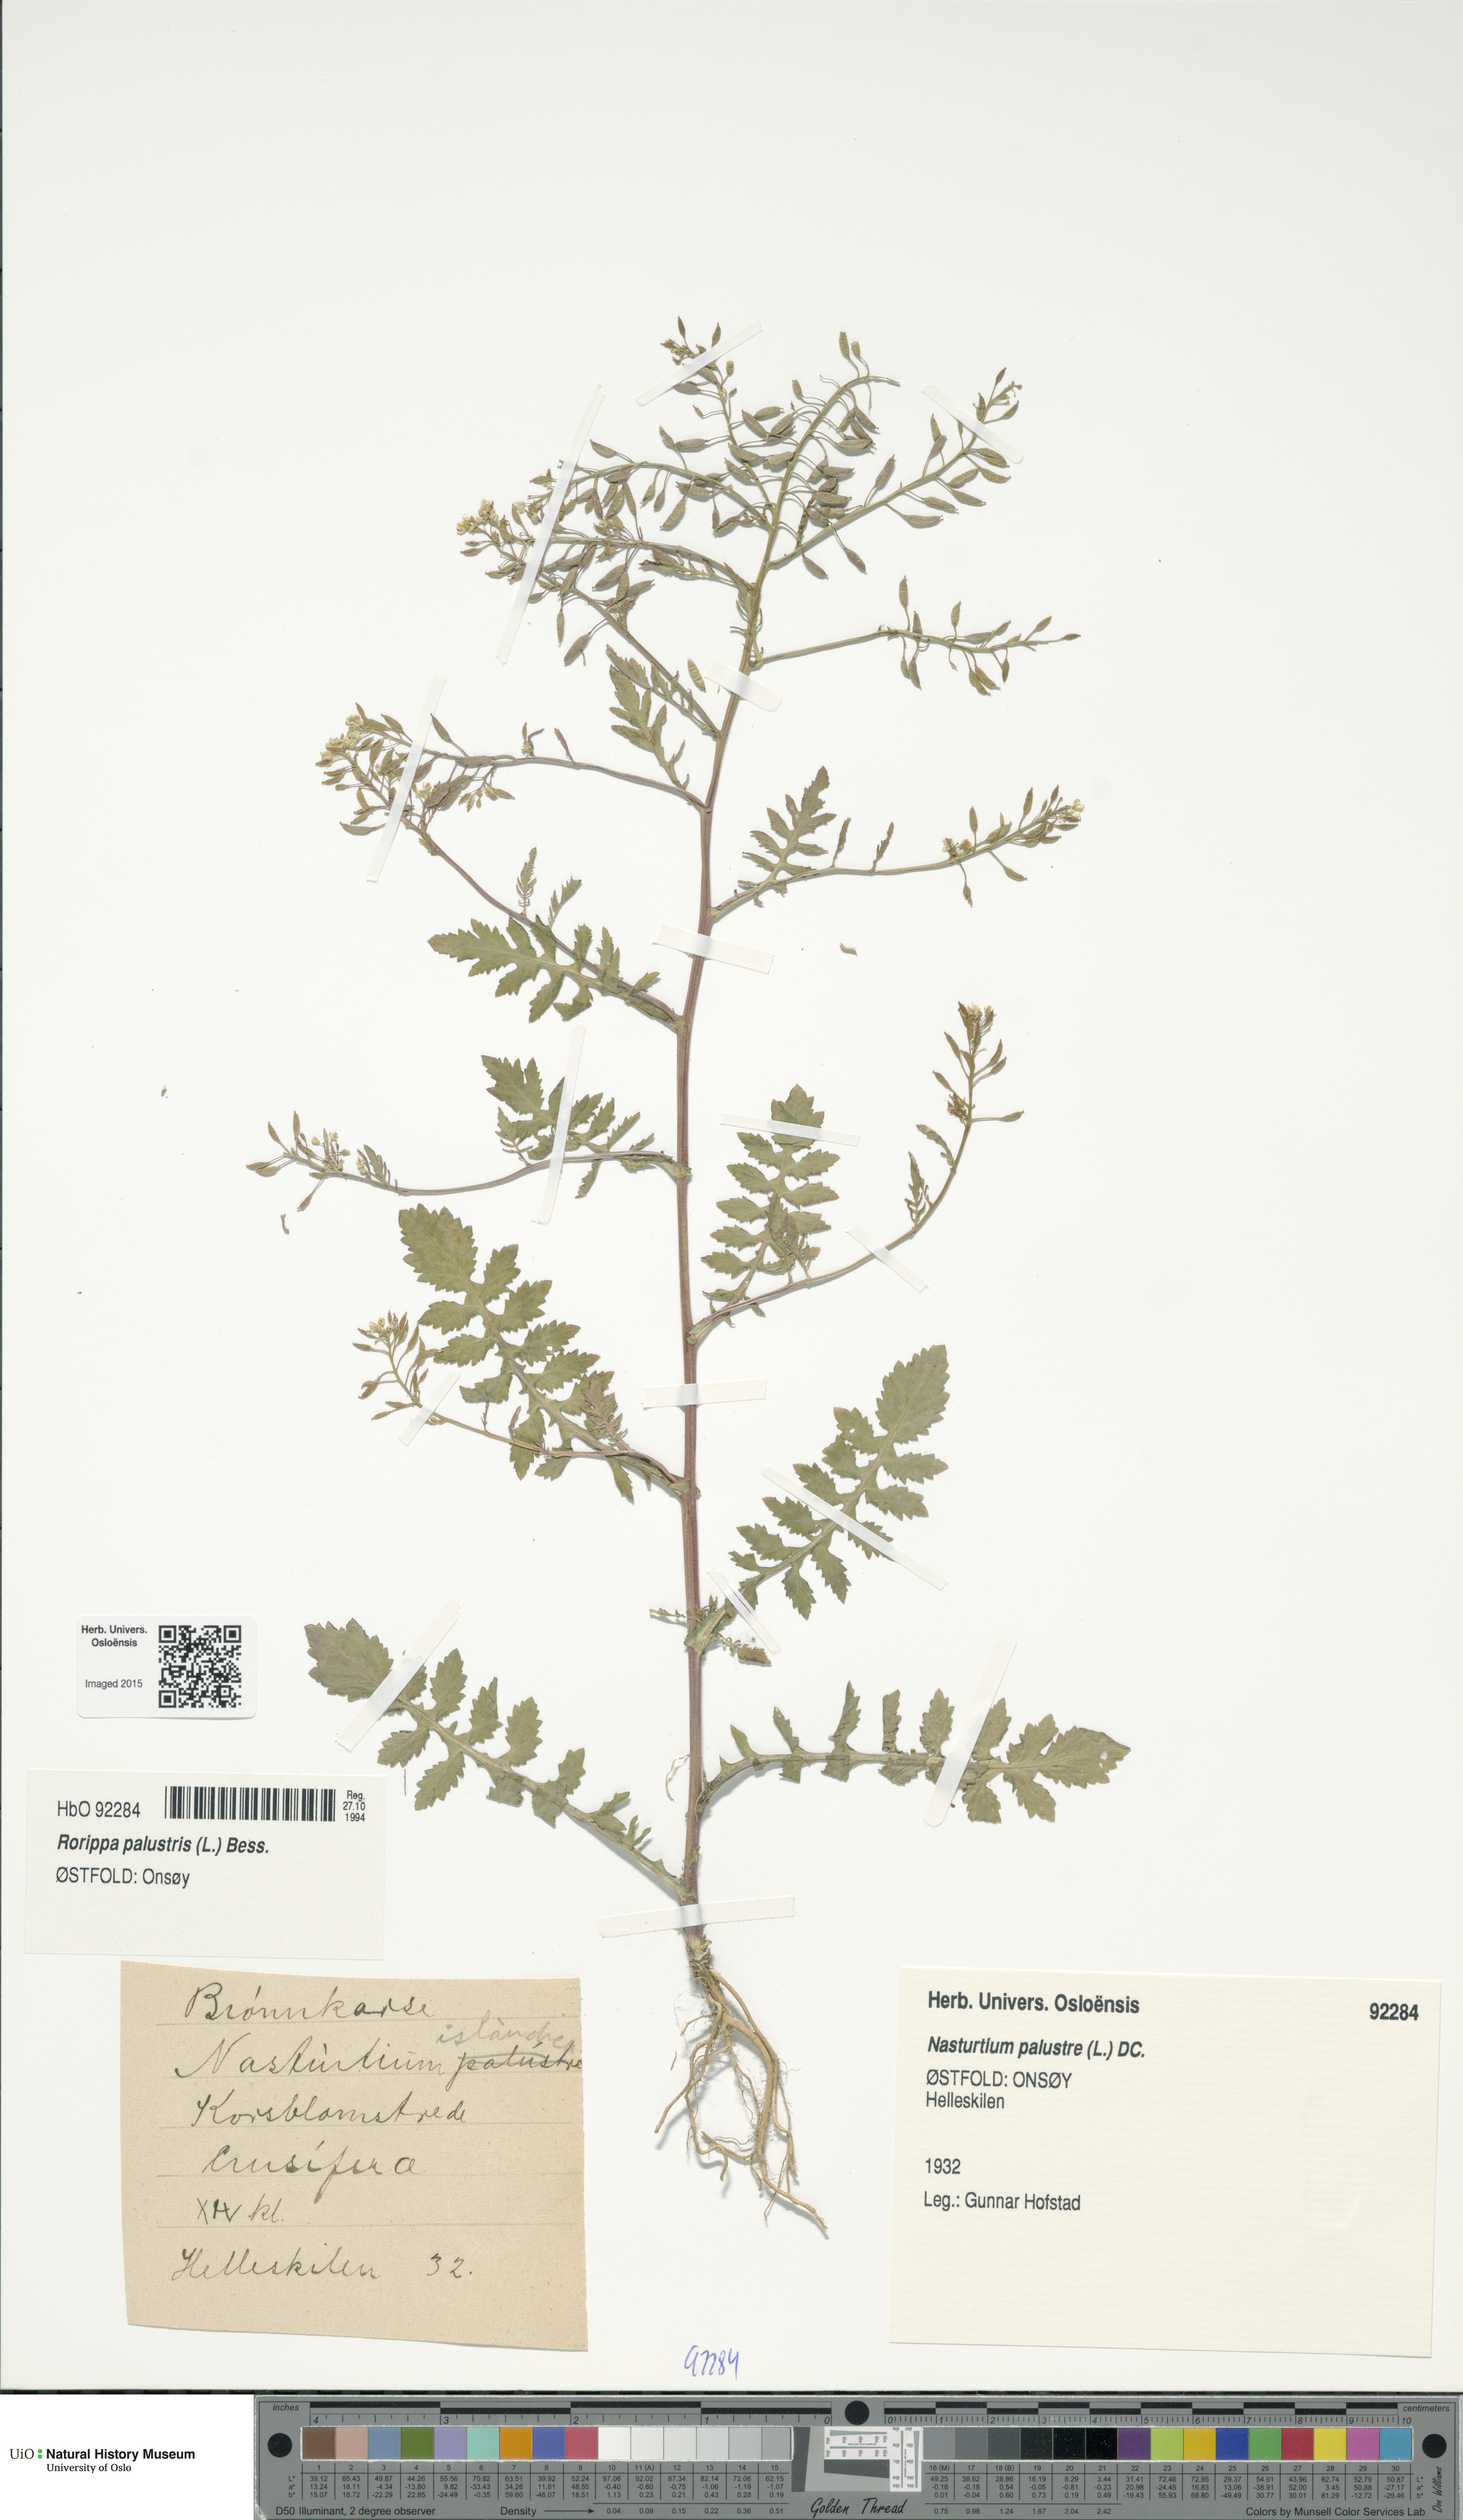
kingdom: Plantae
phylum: Tracheophyta
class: Magnoliopsida
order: Brassicales
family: Brassicaceae
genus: Rorippa
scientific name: Rorippa palustris
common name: Marsh yellow-cress
